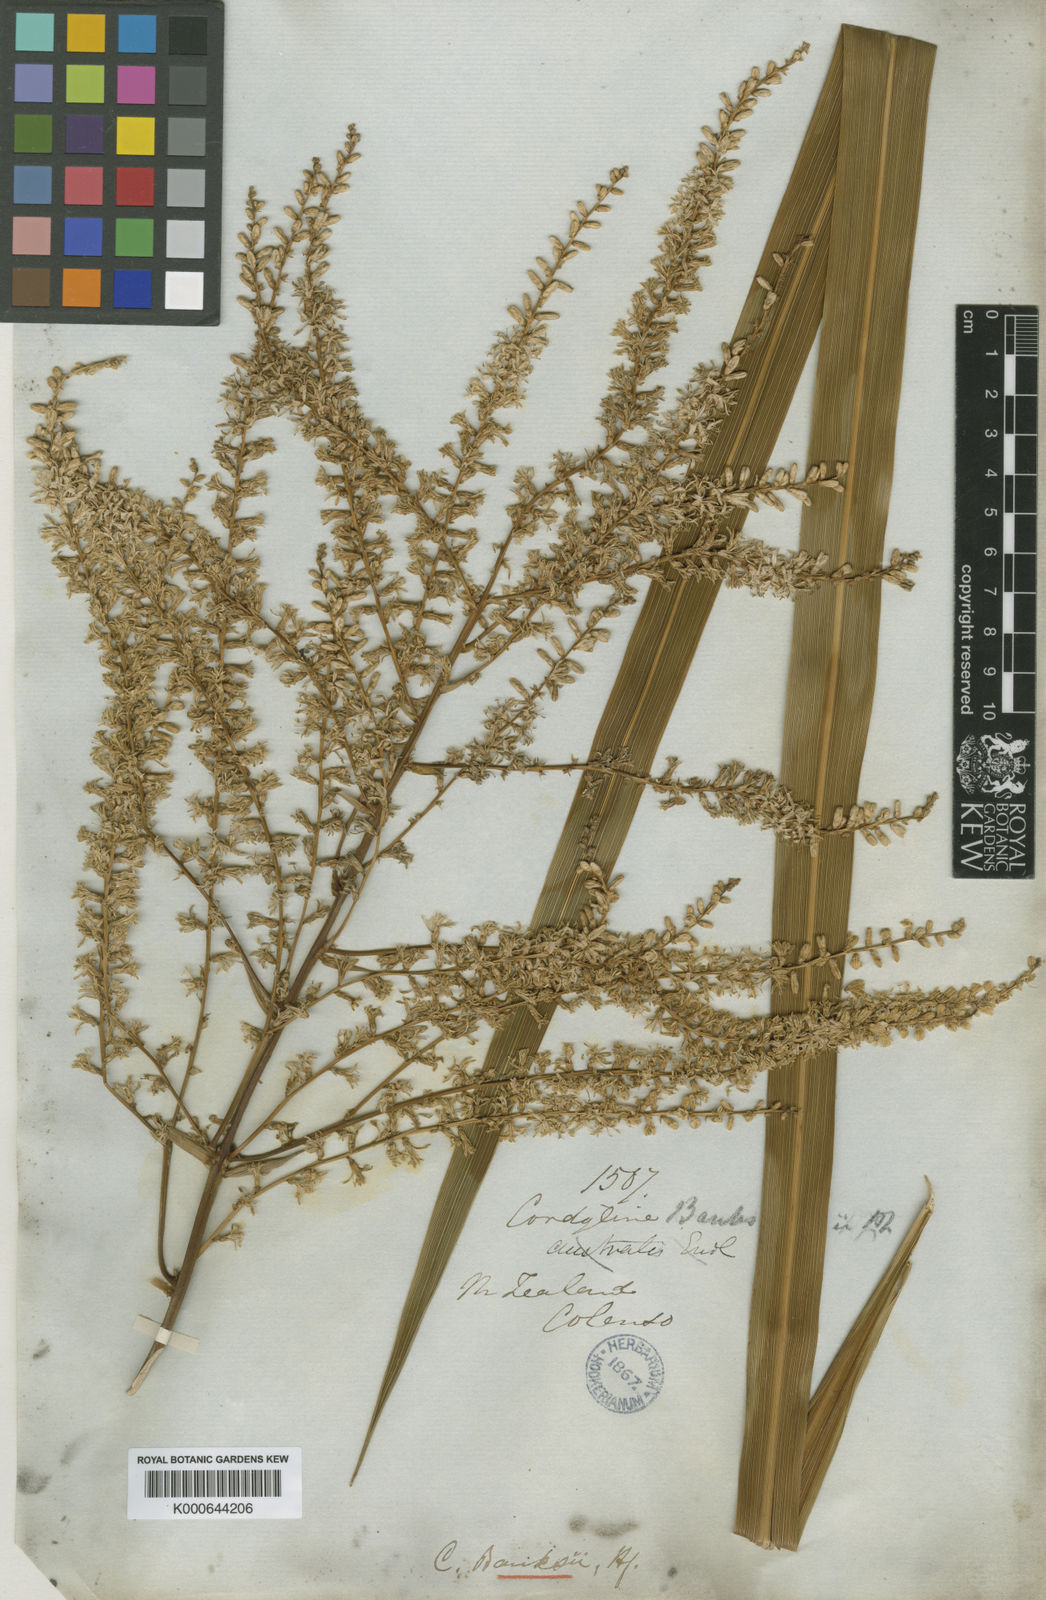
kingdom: Plantae
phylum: Tracheophyta
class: Liliopsida
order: Asparagales
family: Asparagaceae
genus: Cordyline
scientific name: Cordyline banksii
